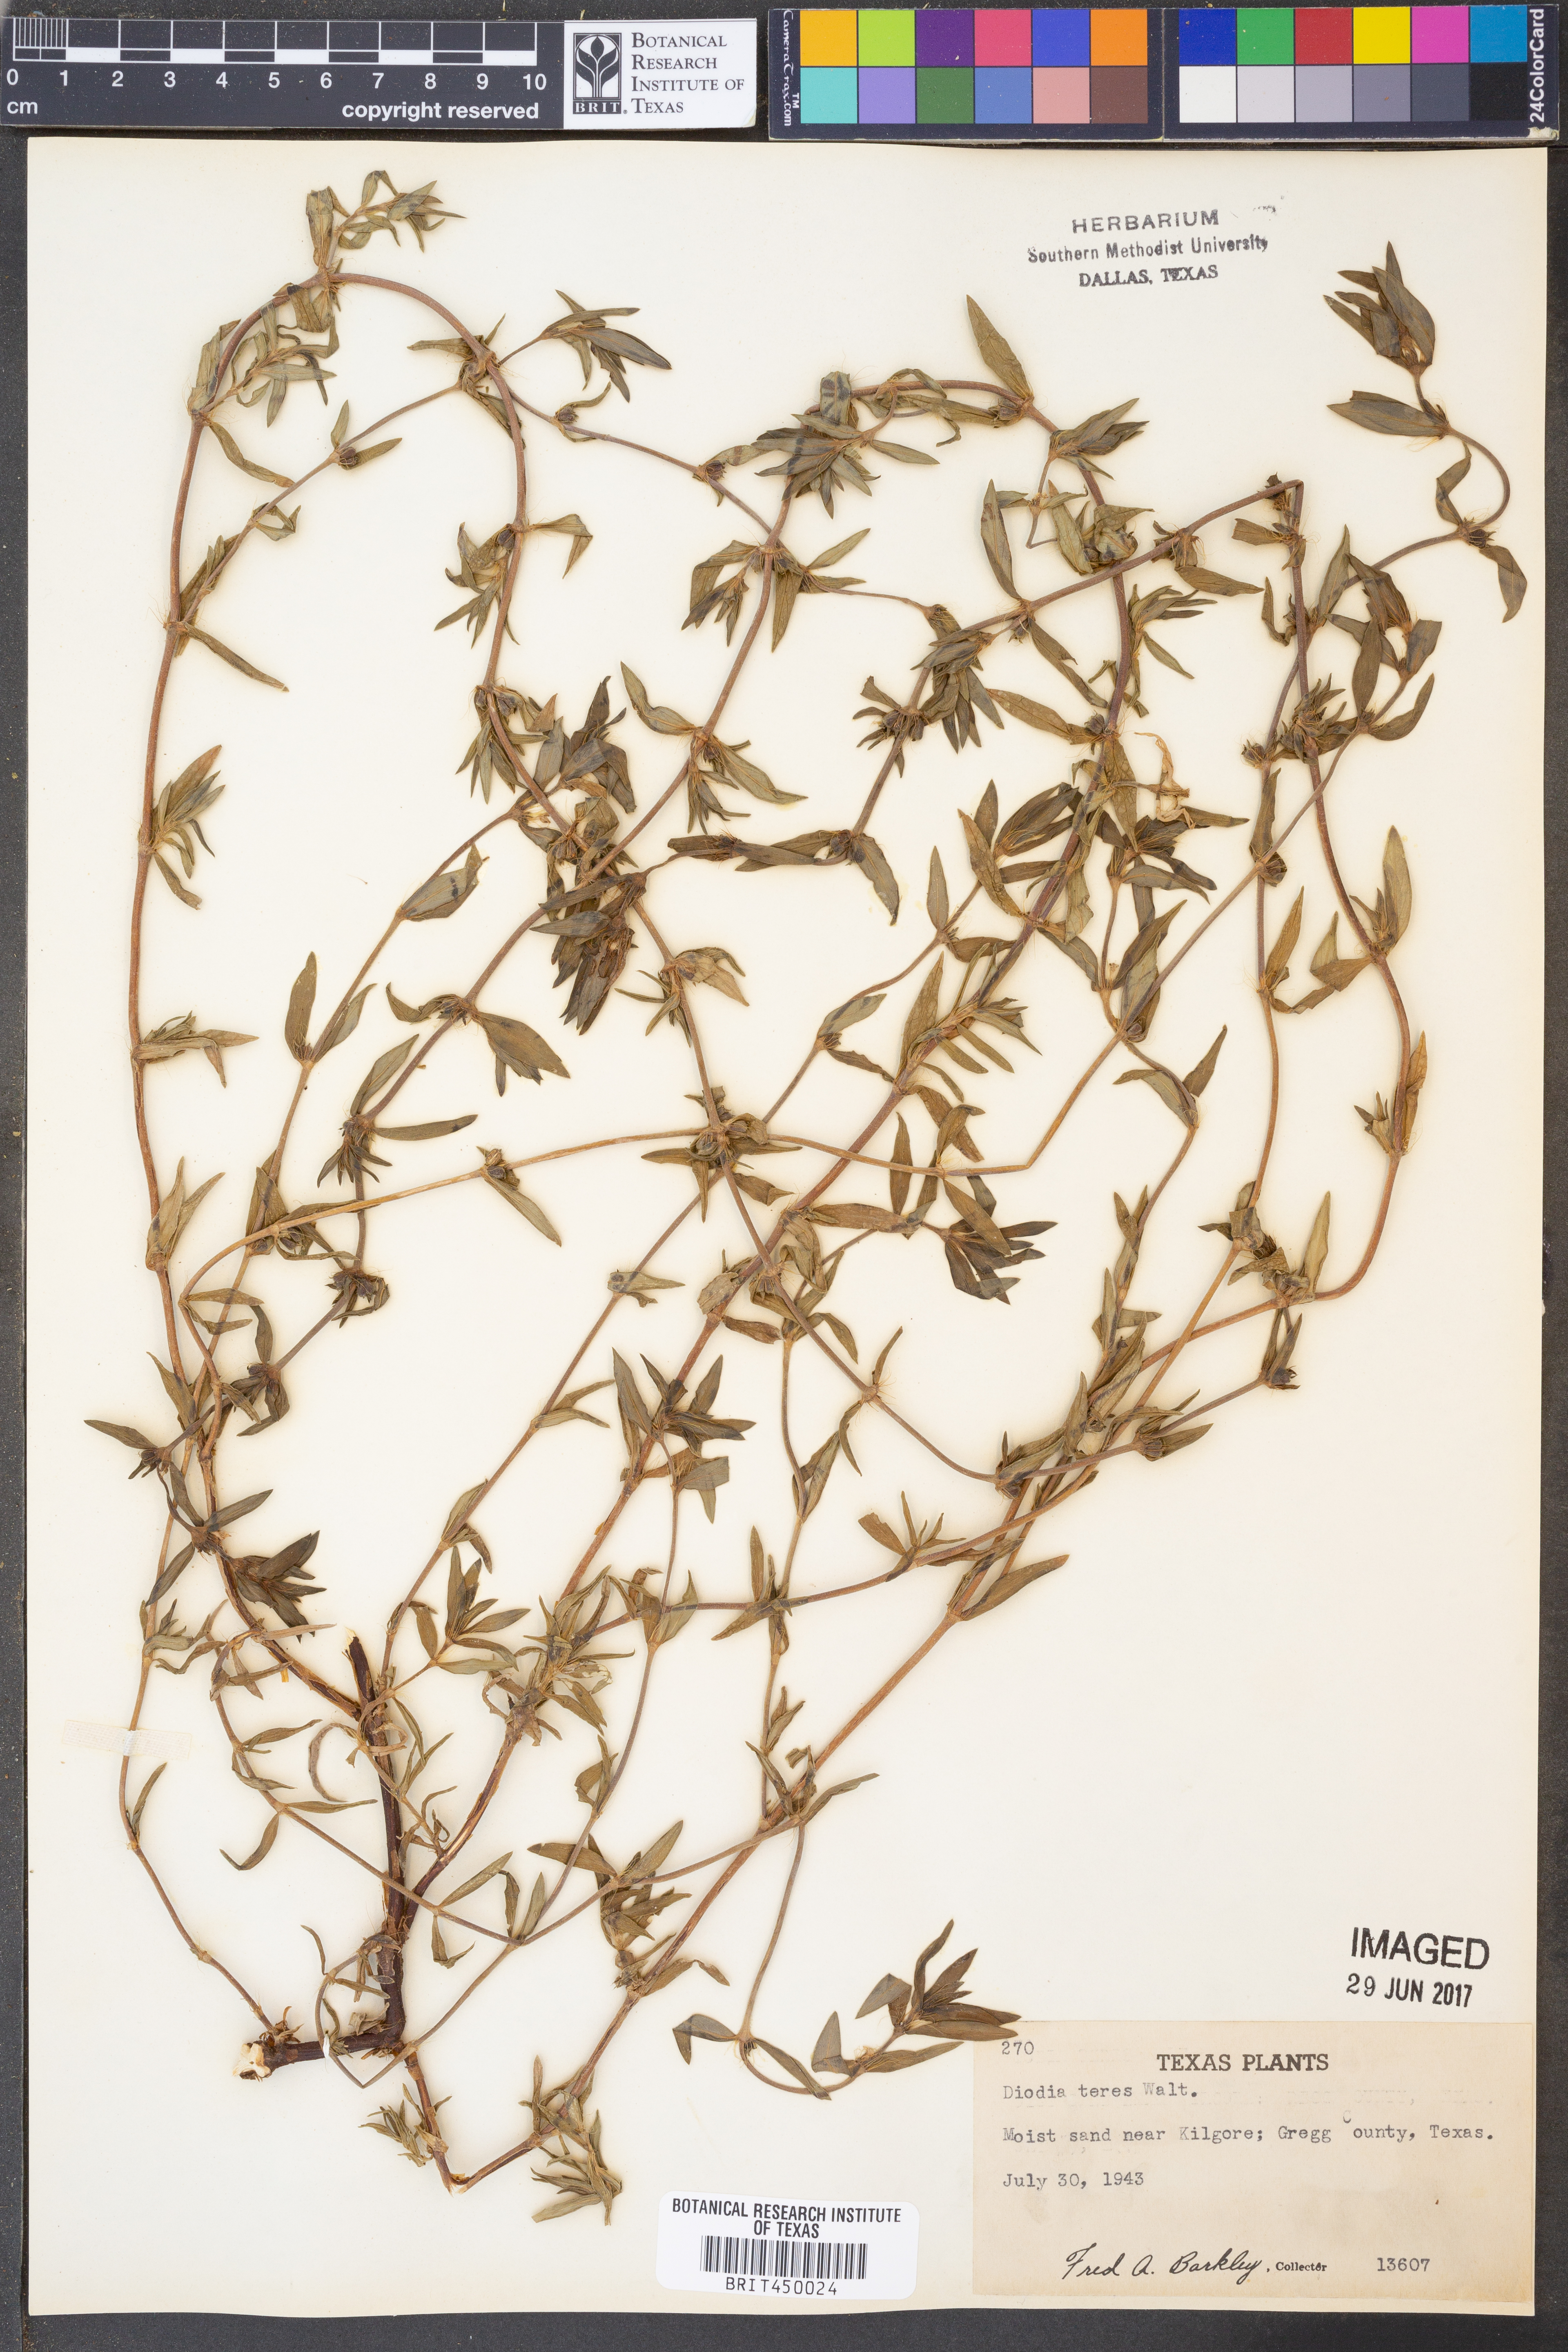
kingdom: Plantae
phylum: Tracheophyta
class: Magnoliopsida
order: Gentianales
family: Rubiaceae
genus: Hexasepalum
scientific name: Hexasepalum teres
